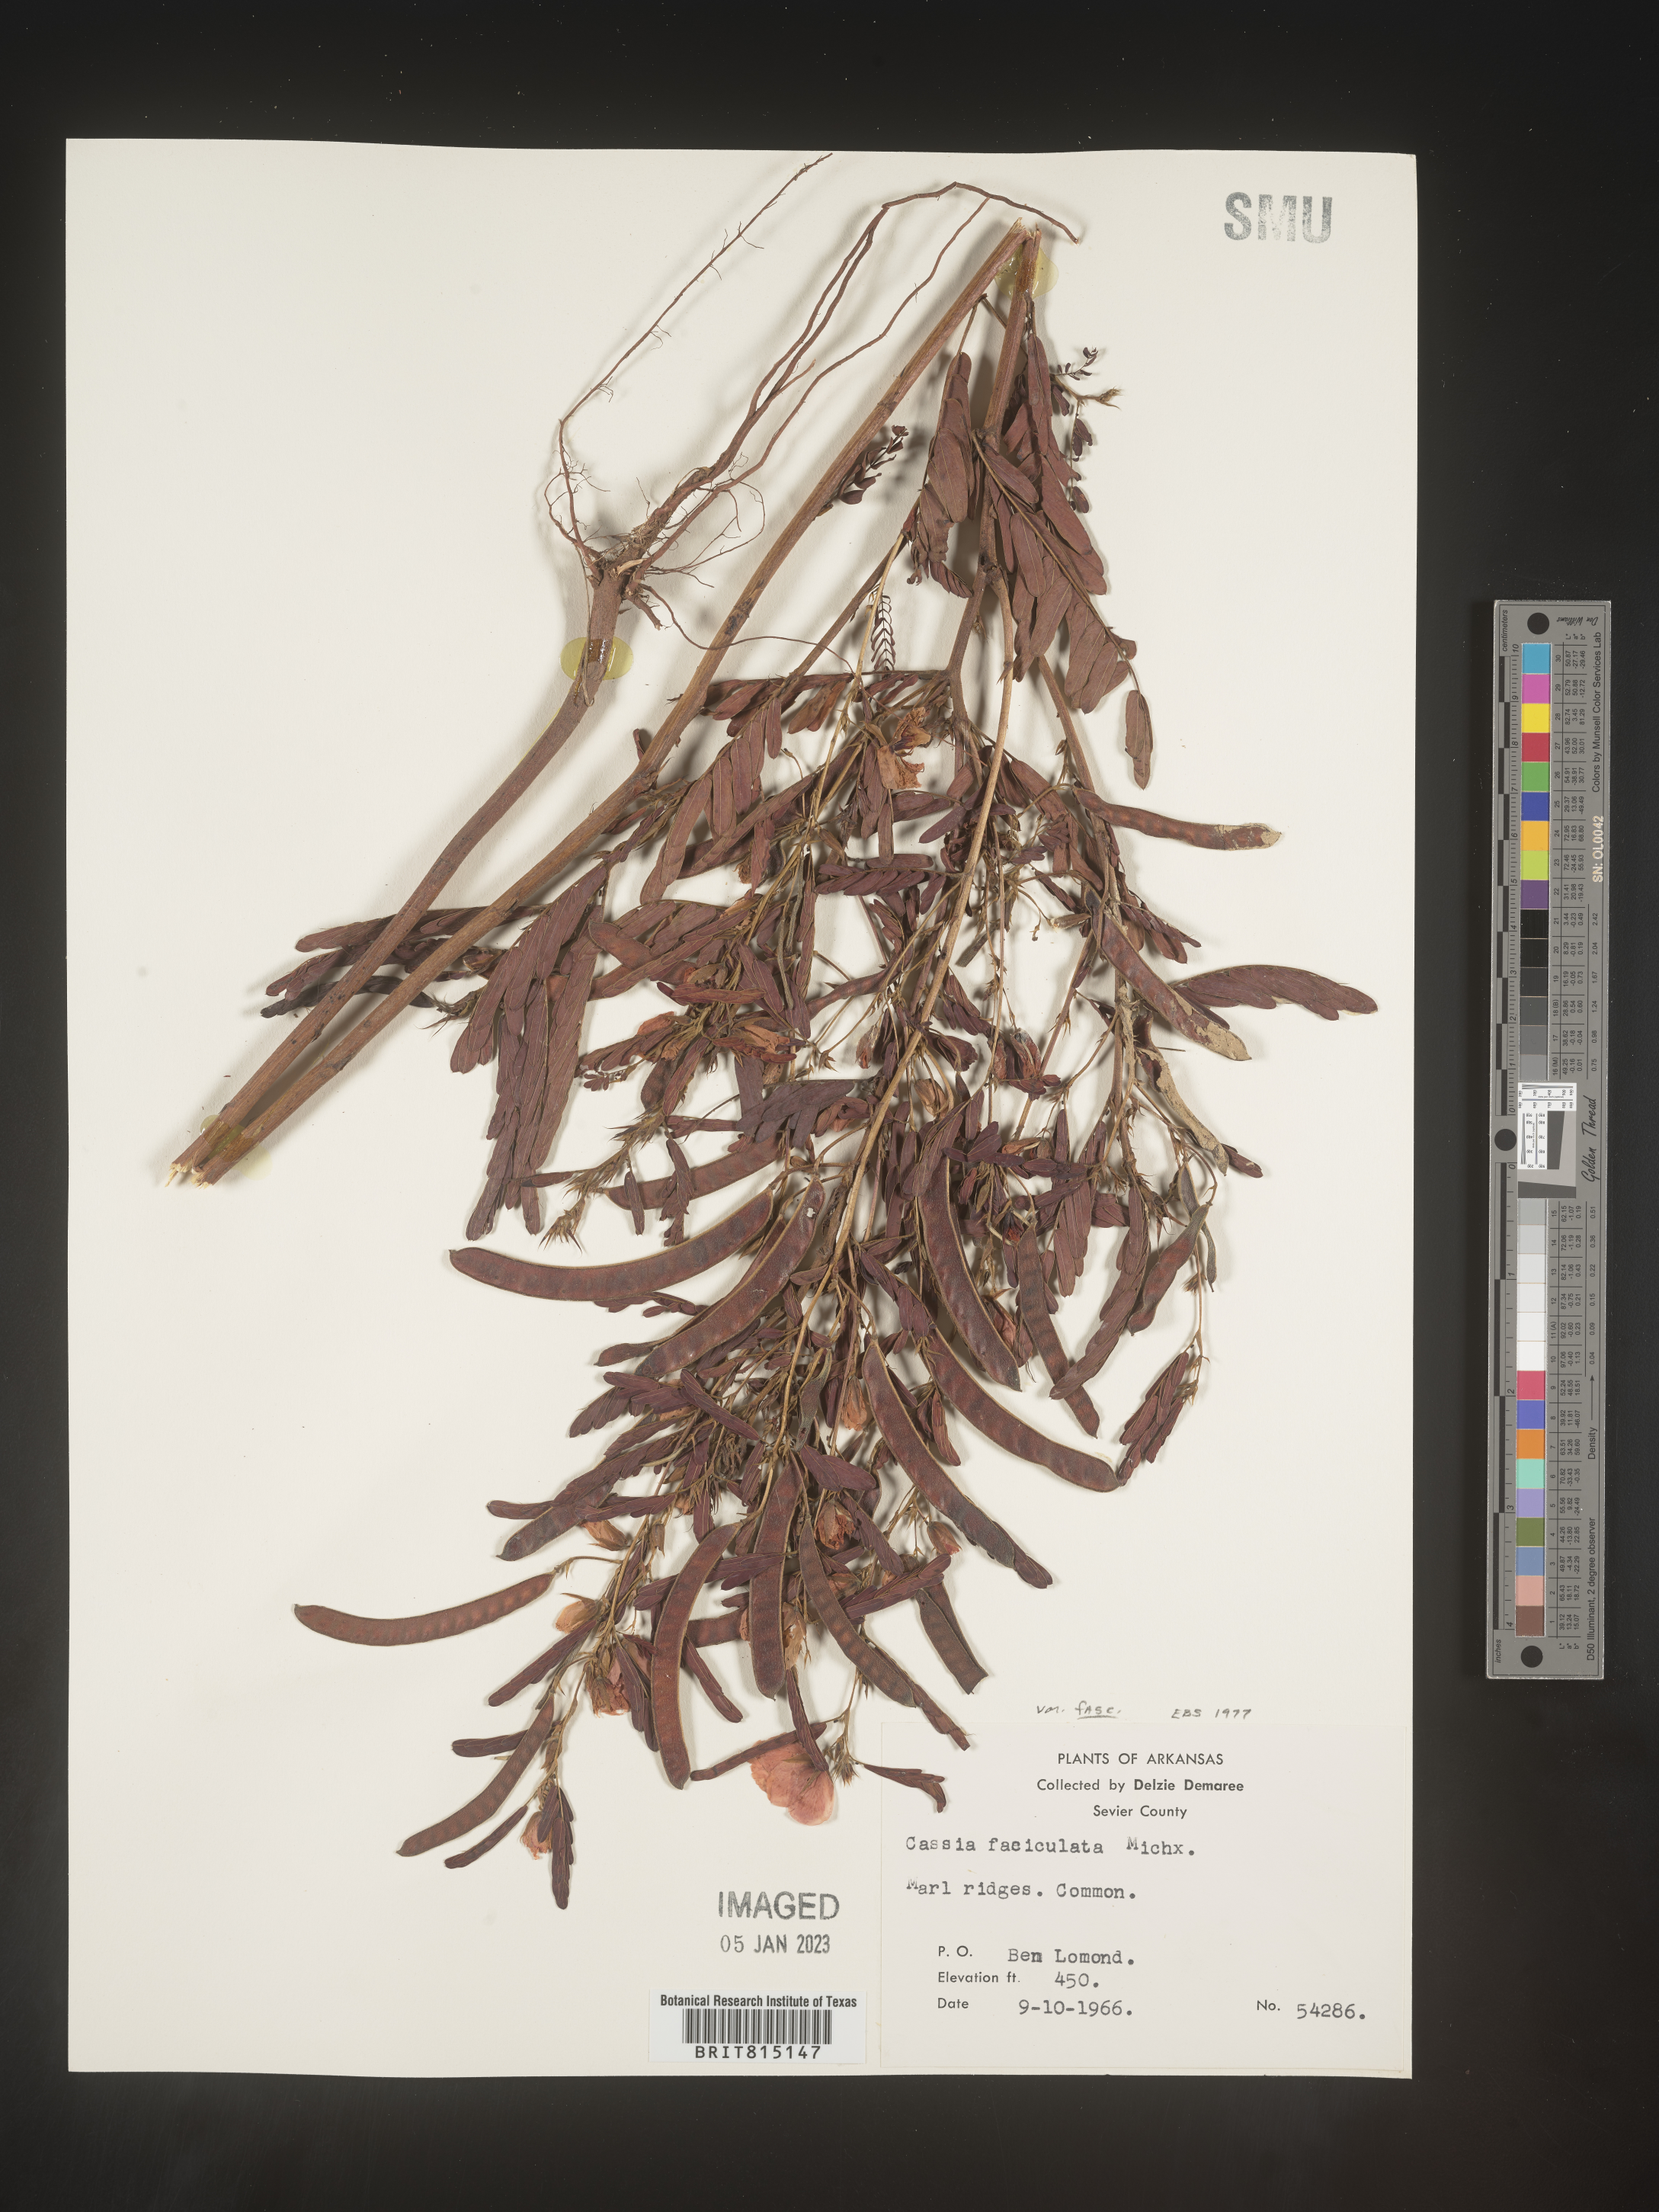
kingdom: Plantae
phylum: Tracheophyta
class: Magnoliopsida
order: Fabales
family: Fabaceae
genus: Chamaecrista
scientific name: Chamaecrista fasciculata
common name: Golden cassia
